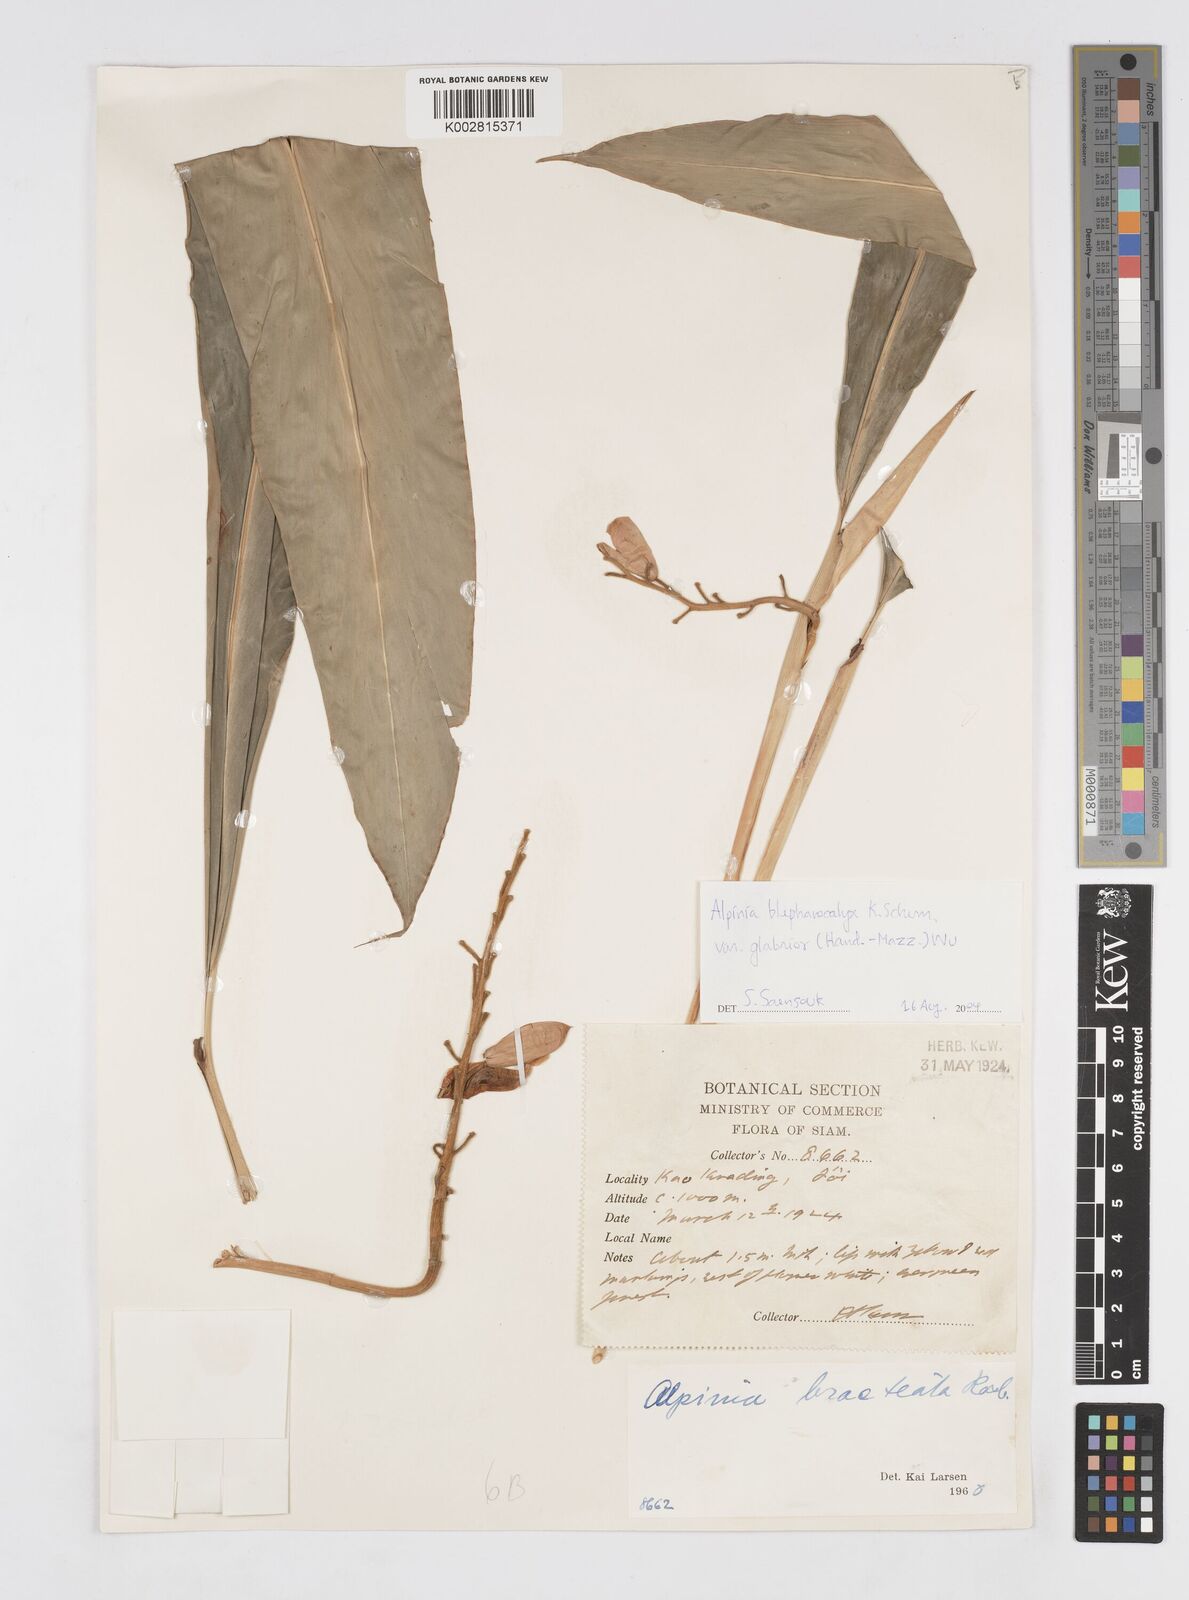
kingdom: Plantae
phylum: Tracheophyta
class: Liliopsida
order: Zingiberales
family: Zingiberaceae
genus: Alpinia
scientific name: Alpinia roxburghii
